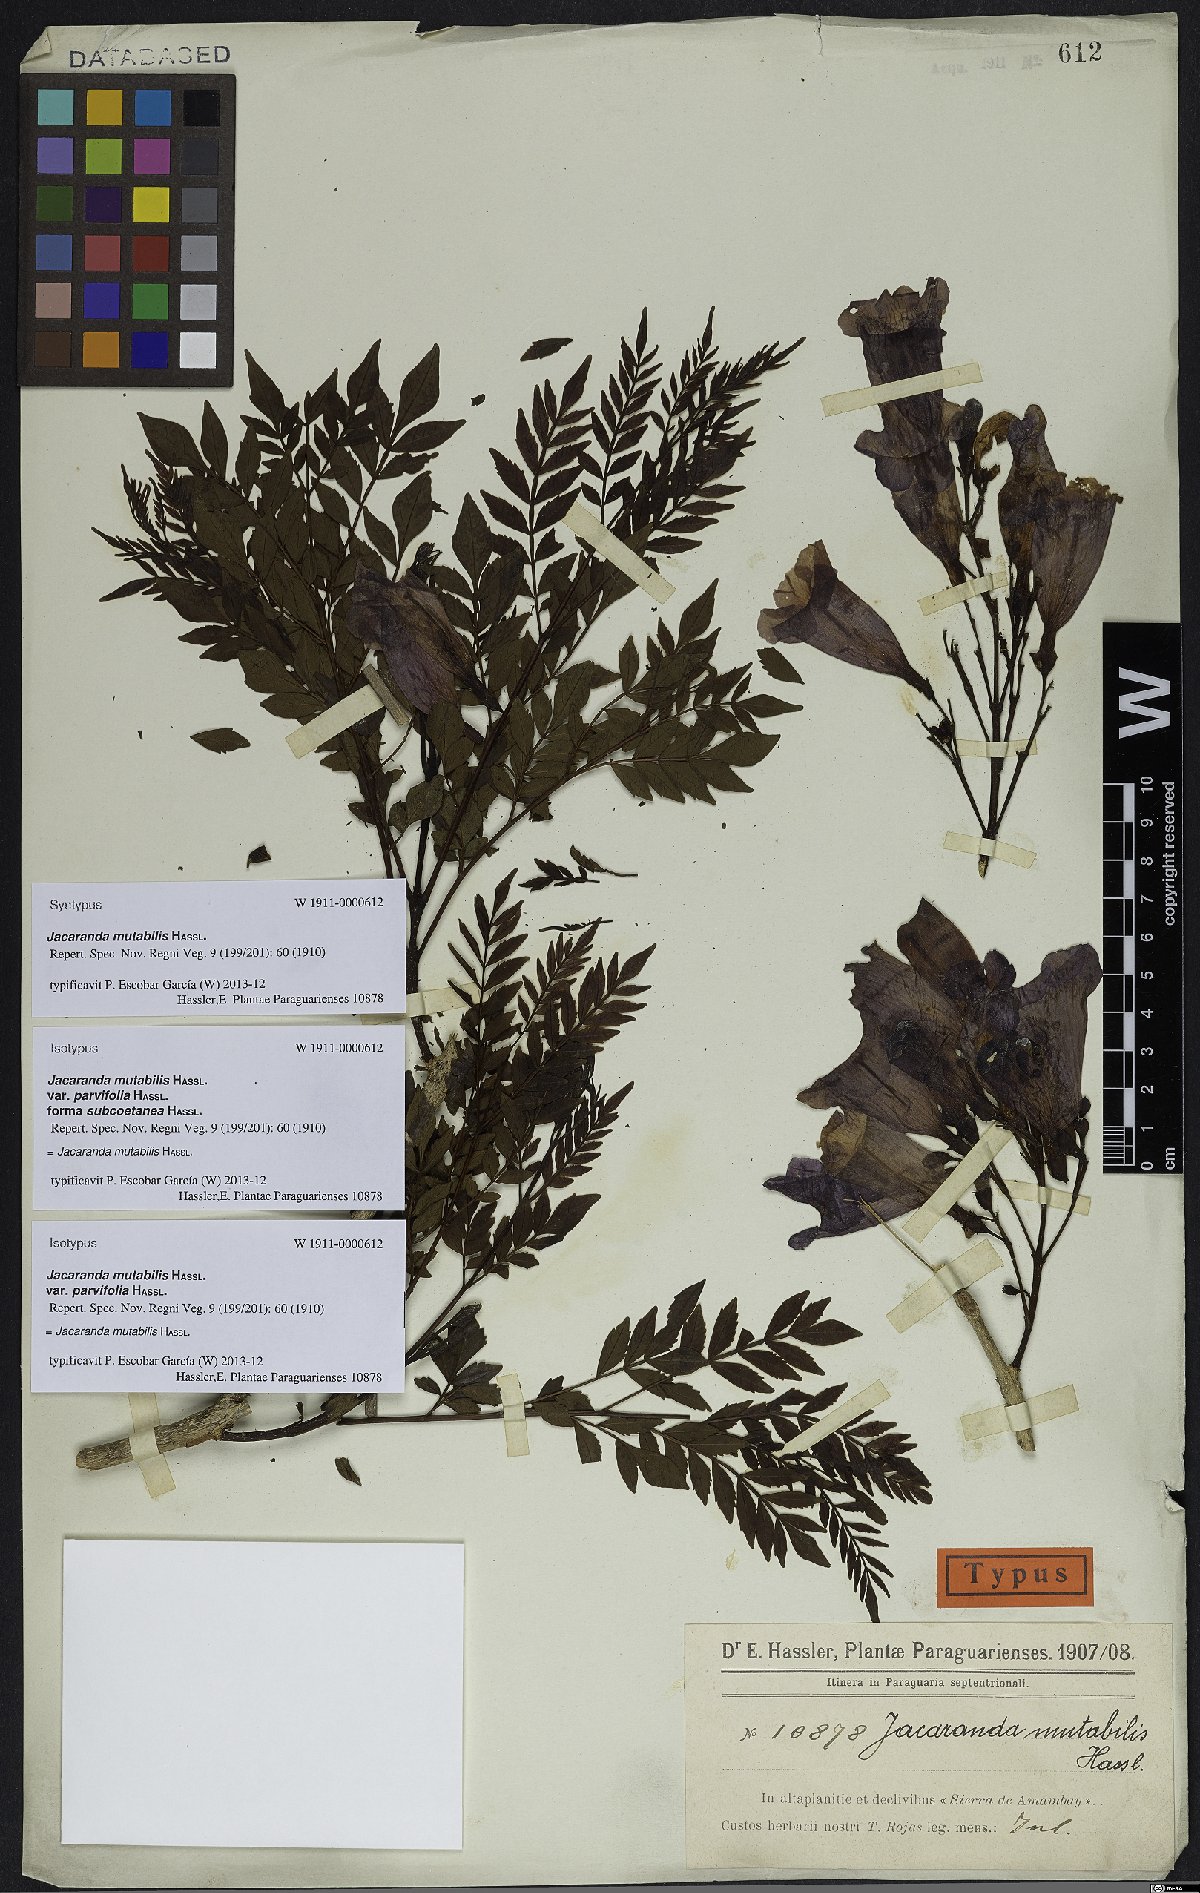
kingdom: Plantae
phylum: Tracheophyta
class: Magnoliopsida
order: Lamiales
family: Bignoniaceae
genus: Jacaranda
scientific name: Jacaranda mutabilis
